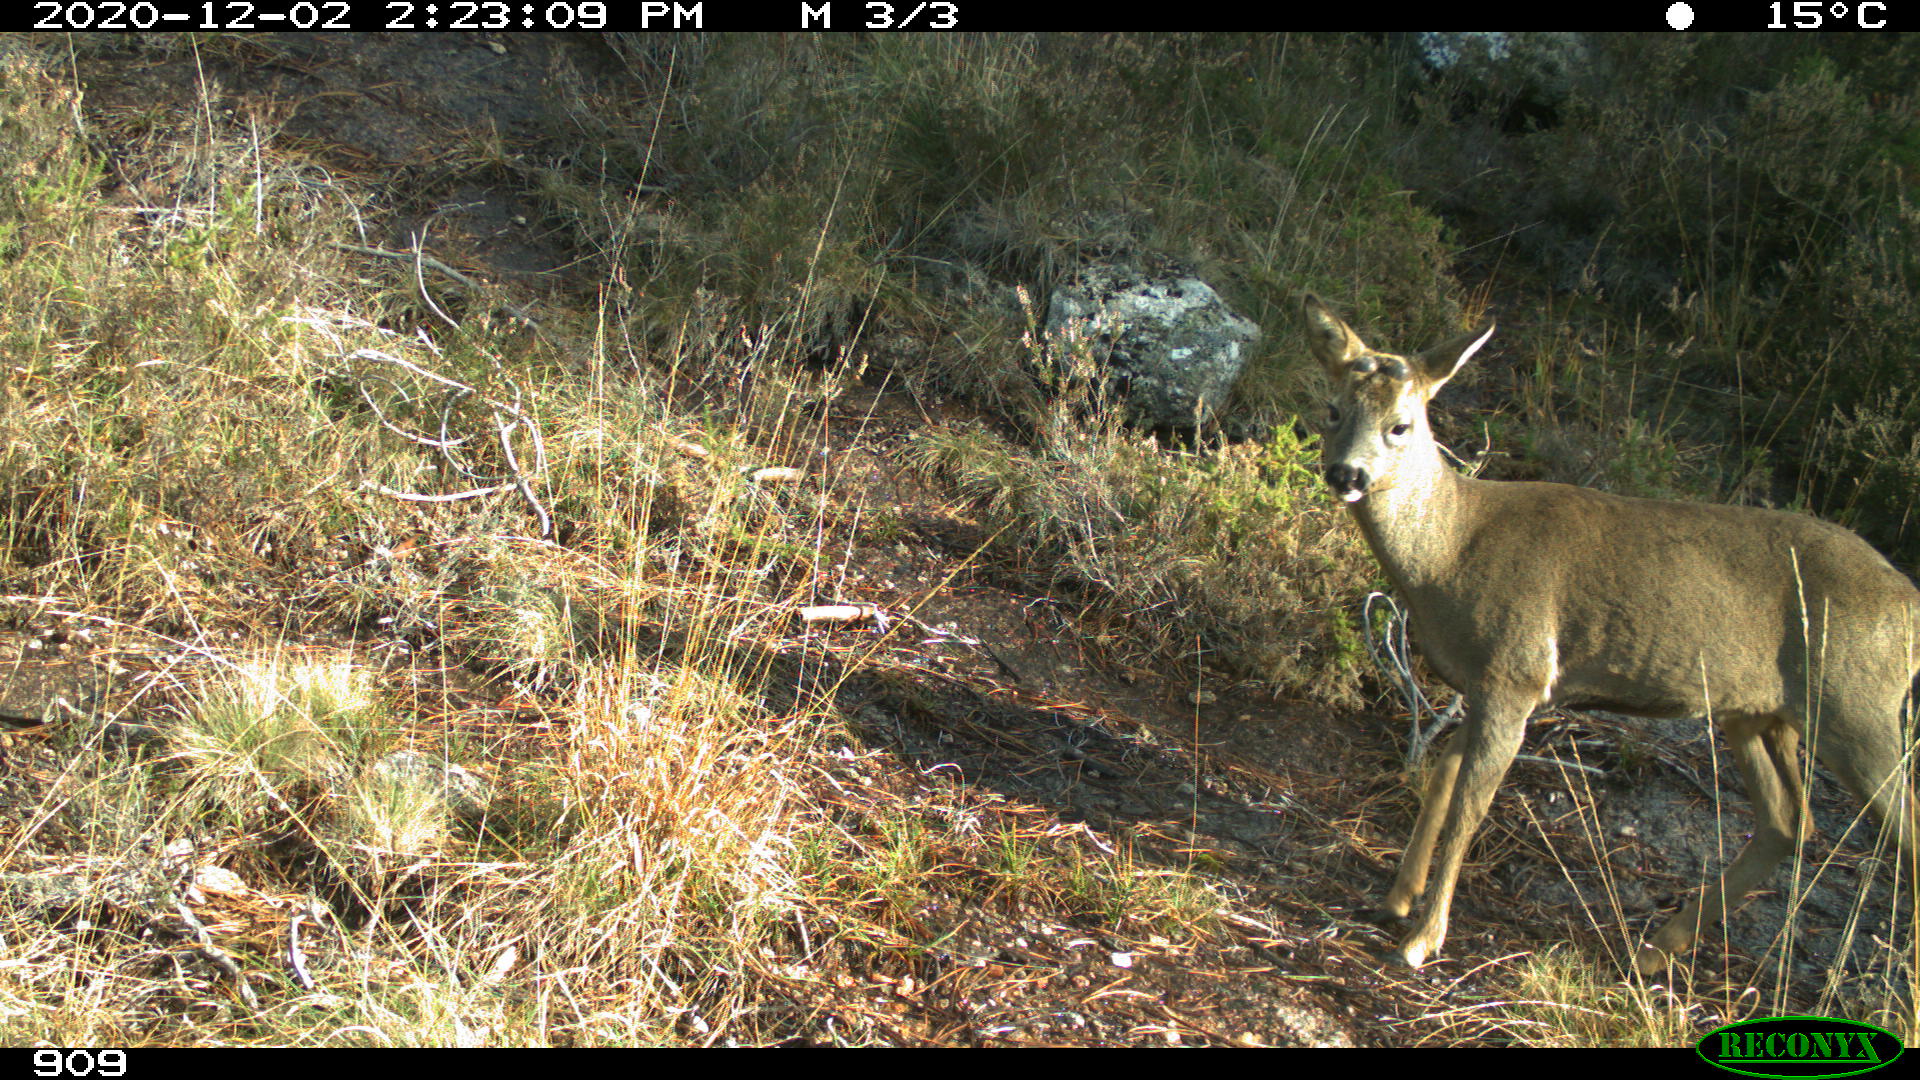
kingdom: Animalia
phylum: Chordata
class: Mammalia
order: Artiodactyla
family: Cervidae
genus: Capreolus
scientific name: Capreolus capreolus
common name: Western roe deer
